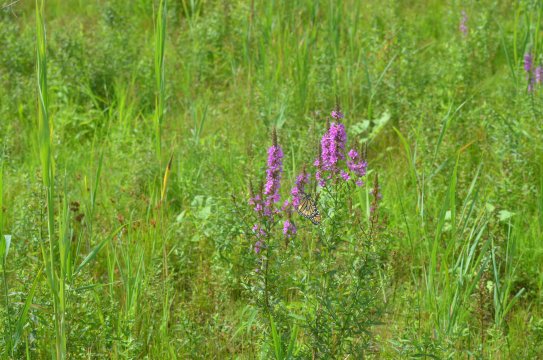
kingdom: Animalia
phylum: Arthropoda
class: Insecta
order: Lepidoptera
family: Nymphalidae
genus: Danaus
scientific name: Danaus plexippus
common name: Monarch
